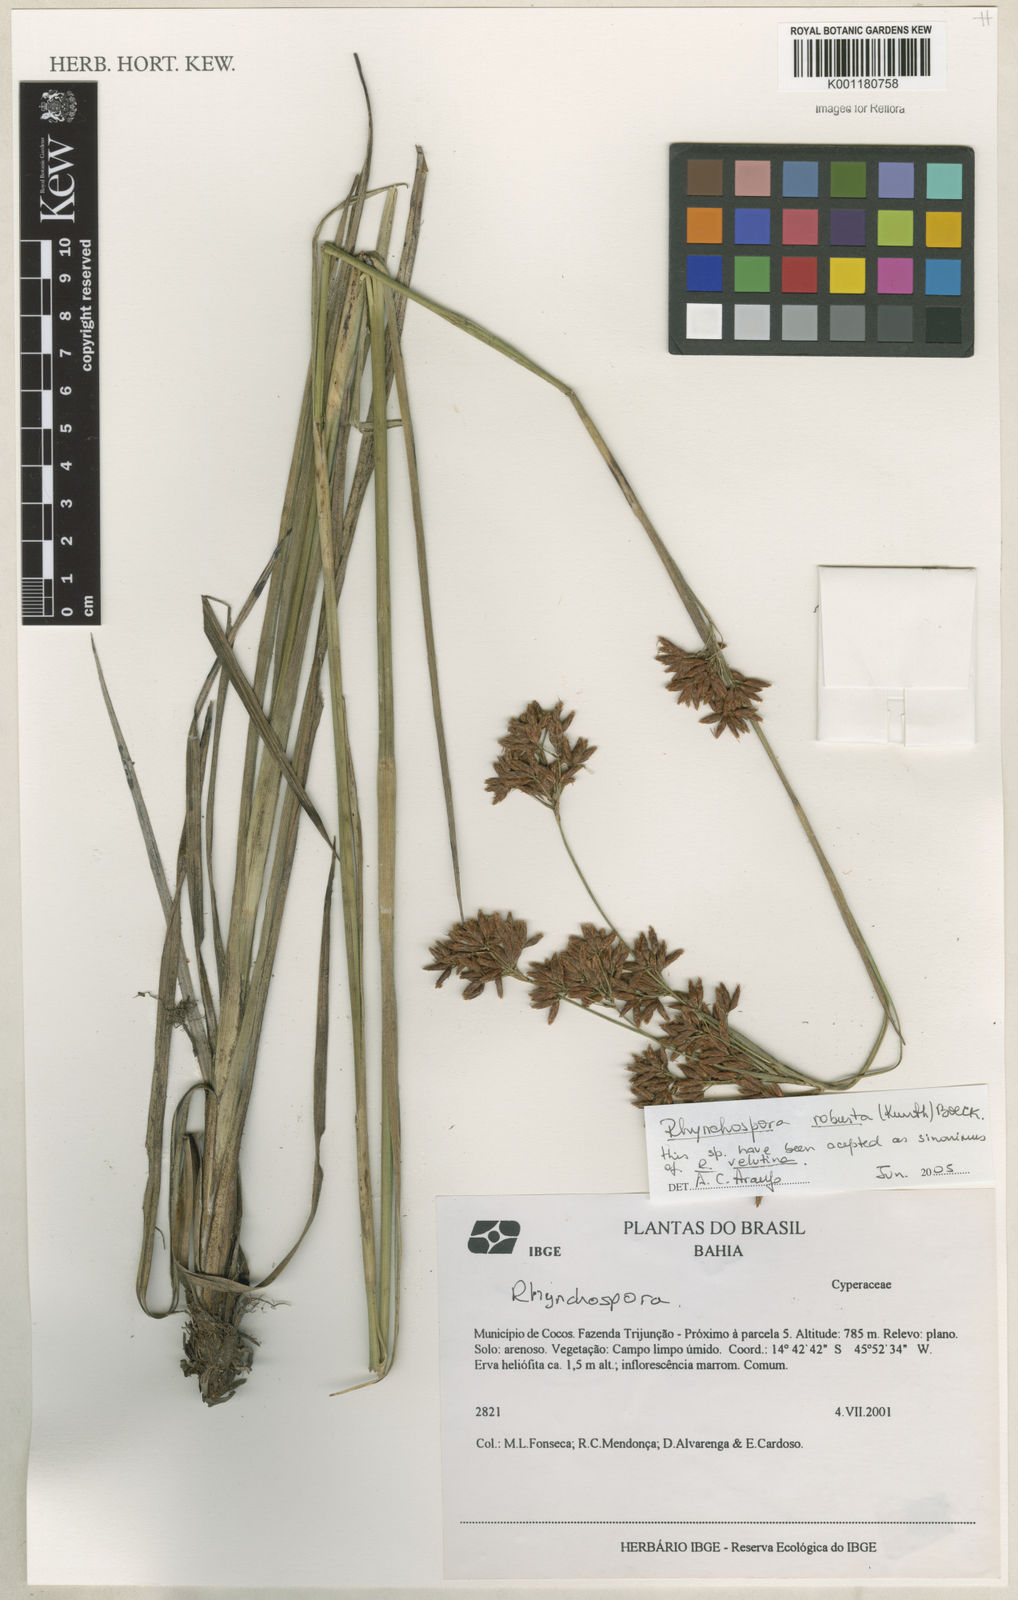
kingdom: Plantae
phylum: Tracheophyta
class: Liliopsida
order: Poales
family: Cyperaceae
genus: Rhynchospora
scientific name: Rhynchospora robusta
